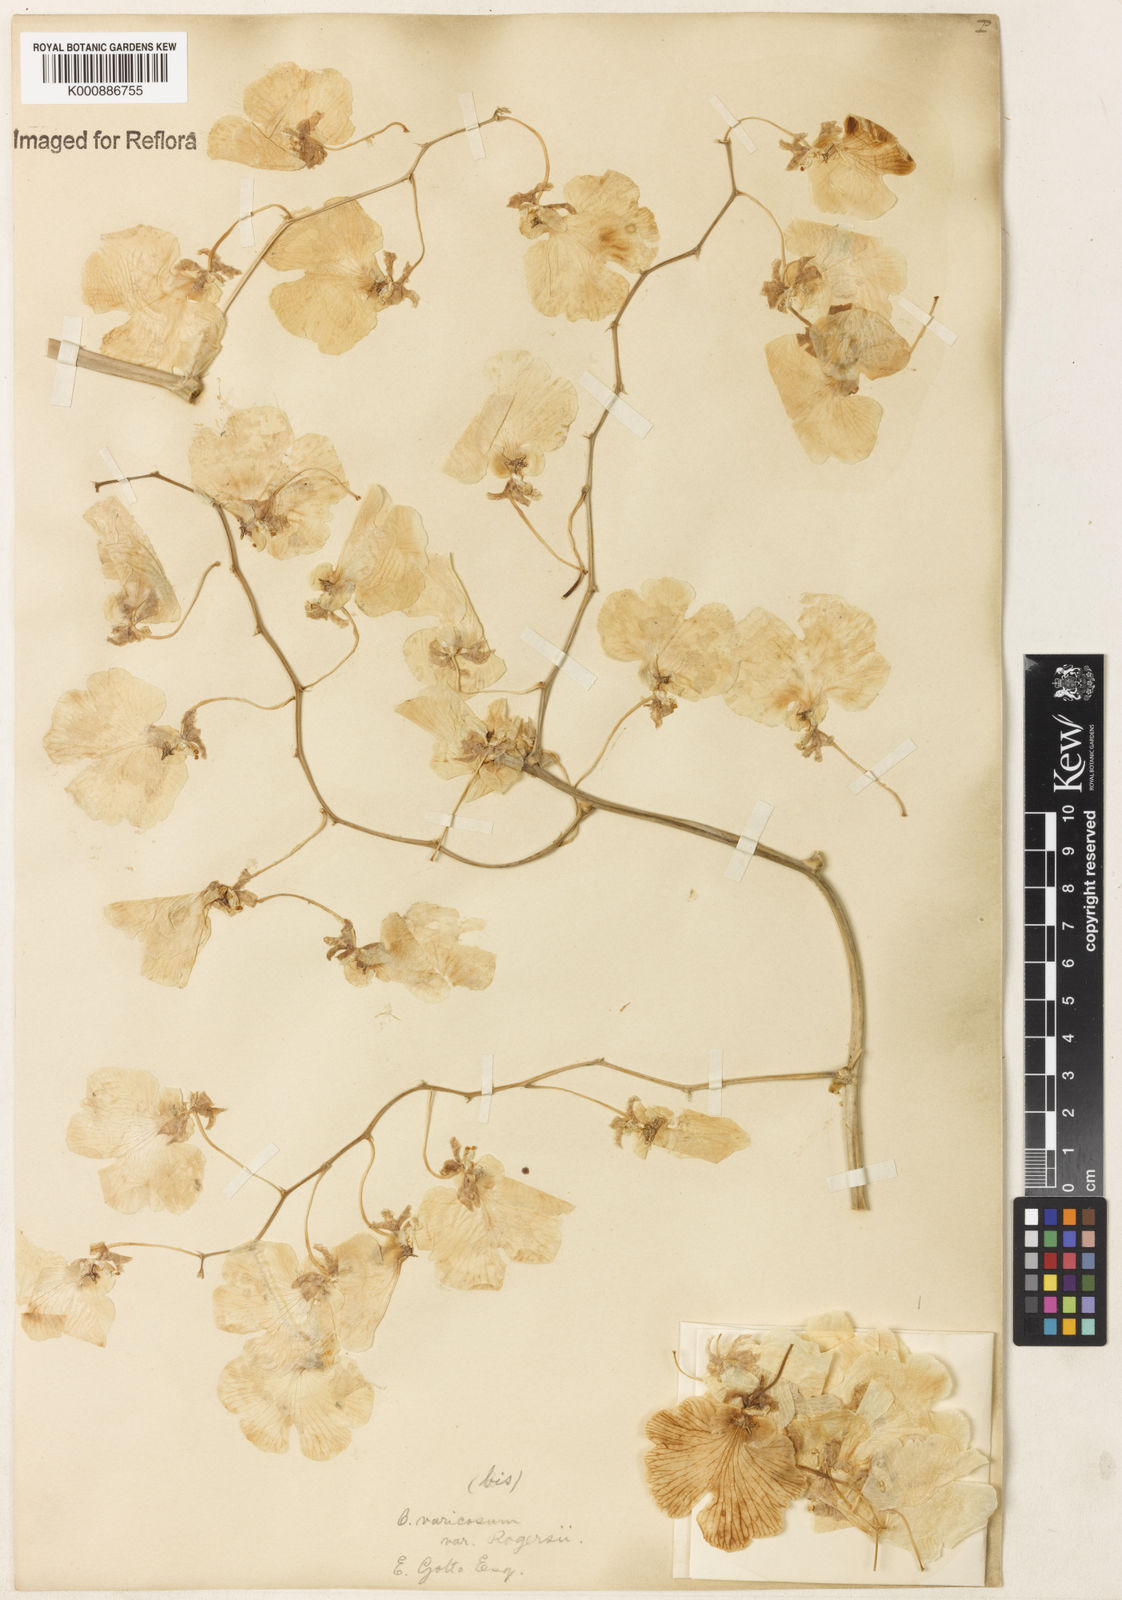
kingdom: Plantae
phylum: Tracheophyta
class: Liliopsida
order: Asparagales
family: Orchidaceae
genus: Gomesa
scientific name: Gomesa varicosa
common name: Dancing ladies
